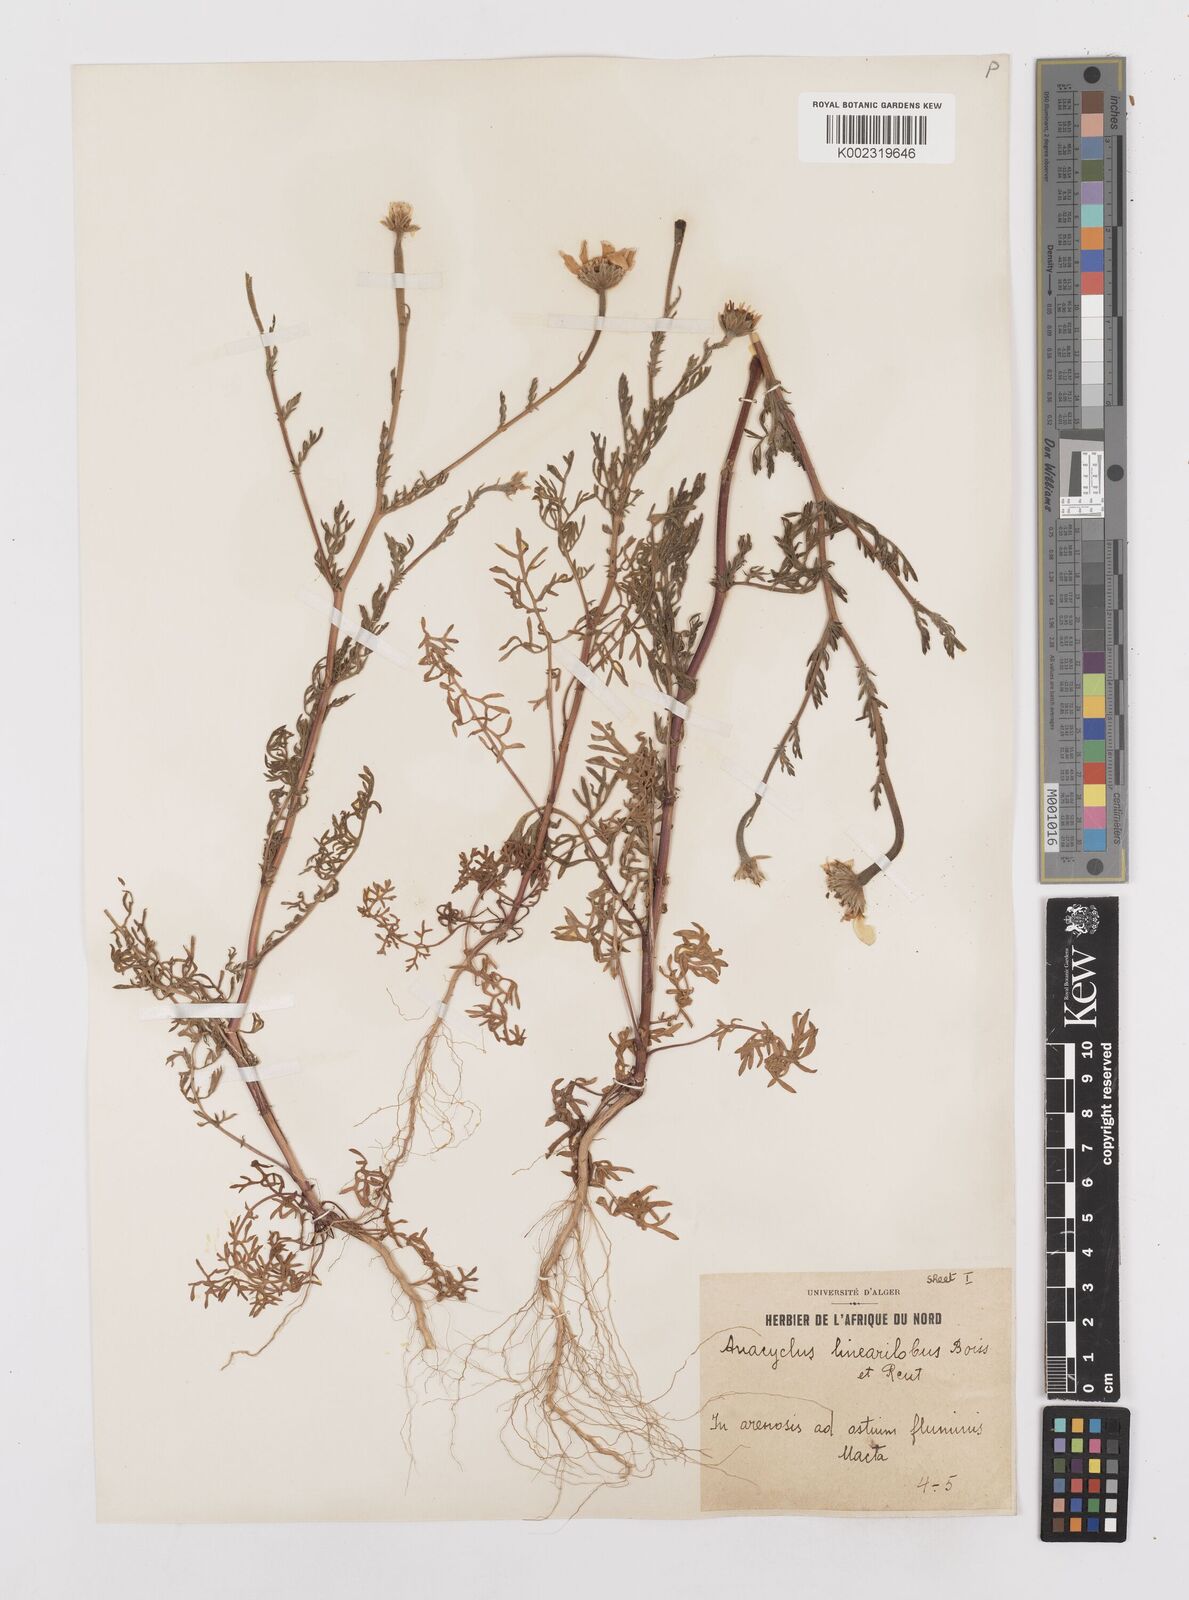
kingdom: Plantae
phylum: Tracheophyta
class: Magnoliopsida
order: Asterales
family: Asteraceae
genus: Anacyclus
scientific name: Anacyclus linearilobus
